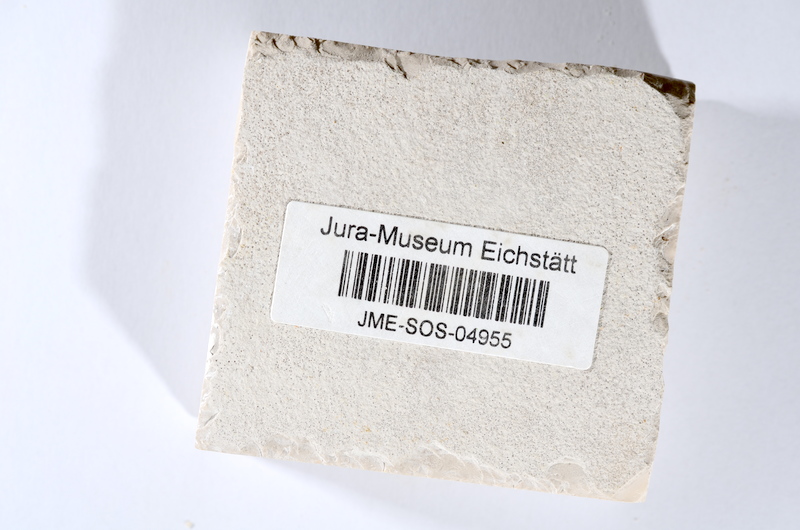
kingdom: Animalia
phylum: Chordata
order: Salmoniformes
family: Orthogonikleithridae
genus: Orthogonikleithrus
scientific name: Orthogonikleithrus hoelli
